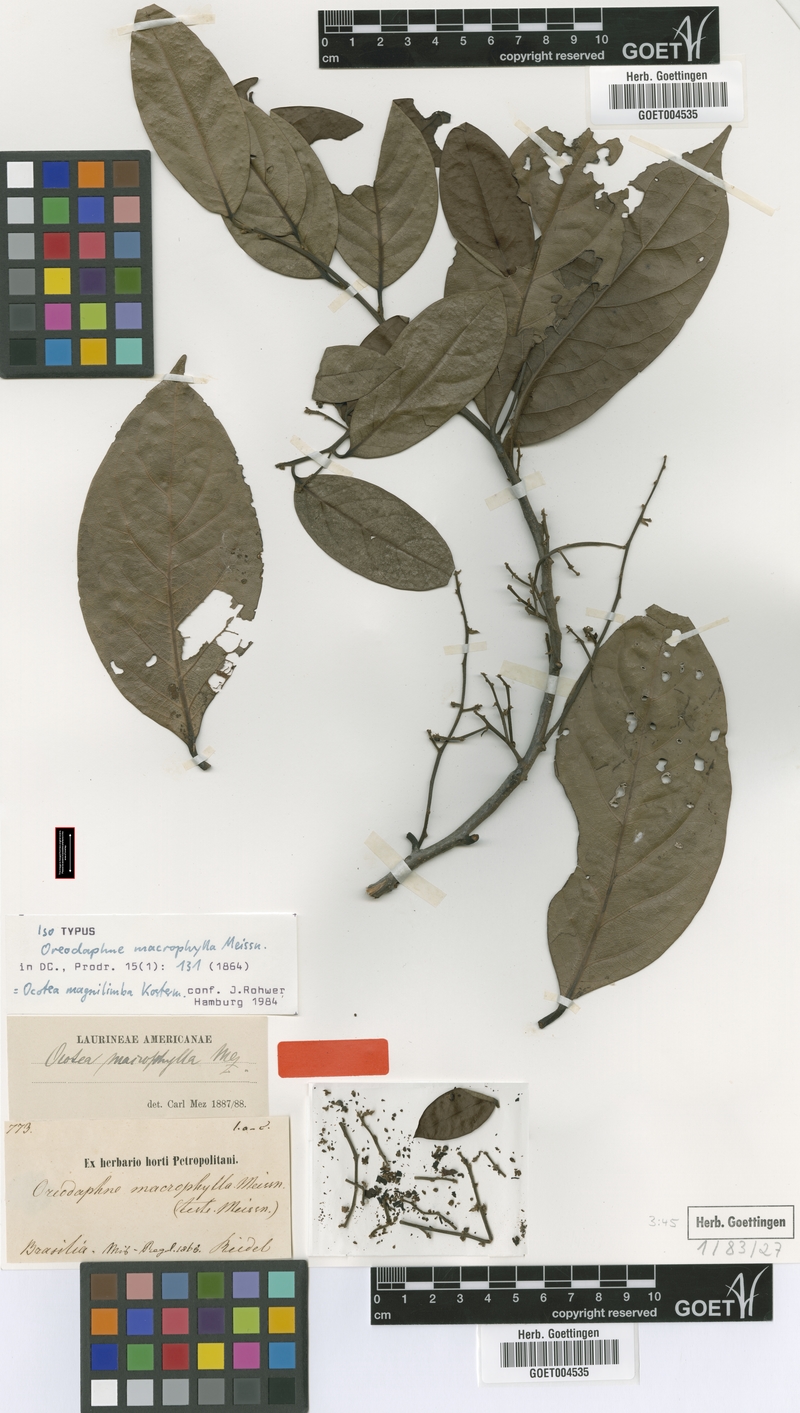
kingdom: Plantae
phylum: Tracheophyta
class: Magnoliopsida
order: Laurales
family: Lauraceae
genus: Ocotea
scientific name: Ocotea magnilimba
